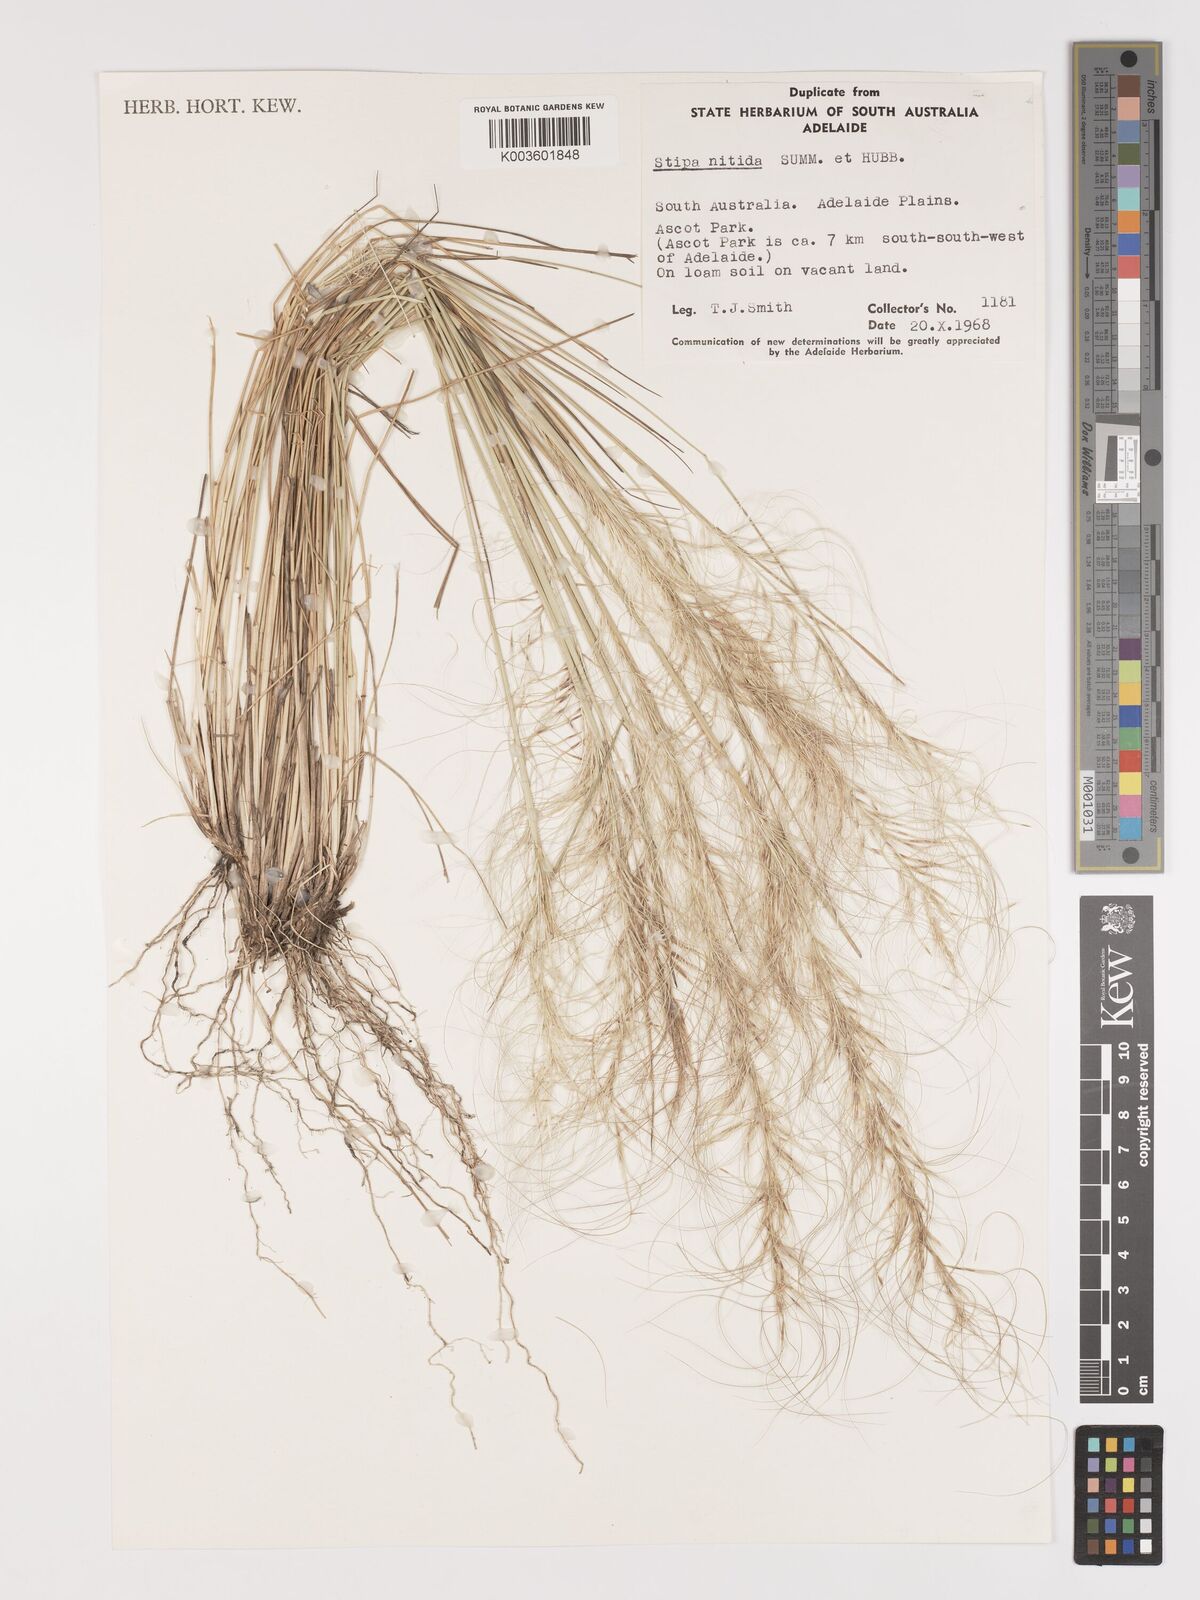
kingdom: Plantae
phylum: Tracheophyta
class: Liliopsida
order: Poales
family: Poaceae
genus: Austrostipa
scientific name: Austrostipa nitida
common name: Balcarra grass
